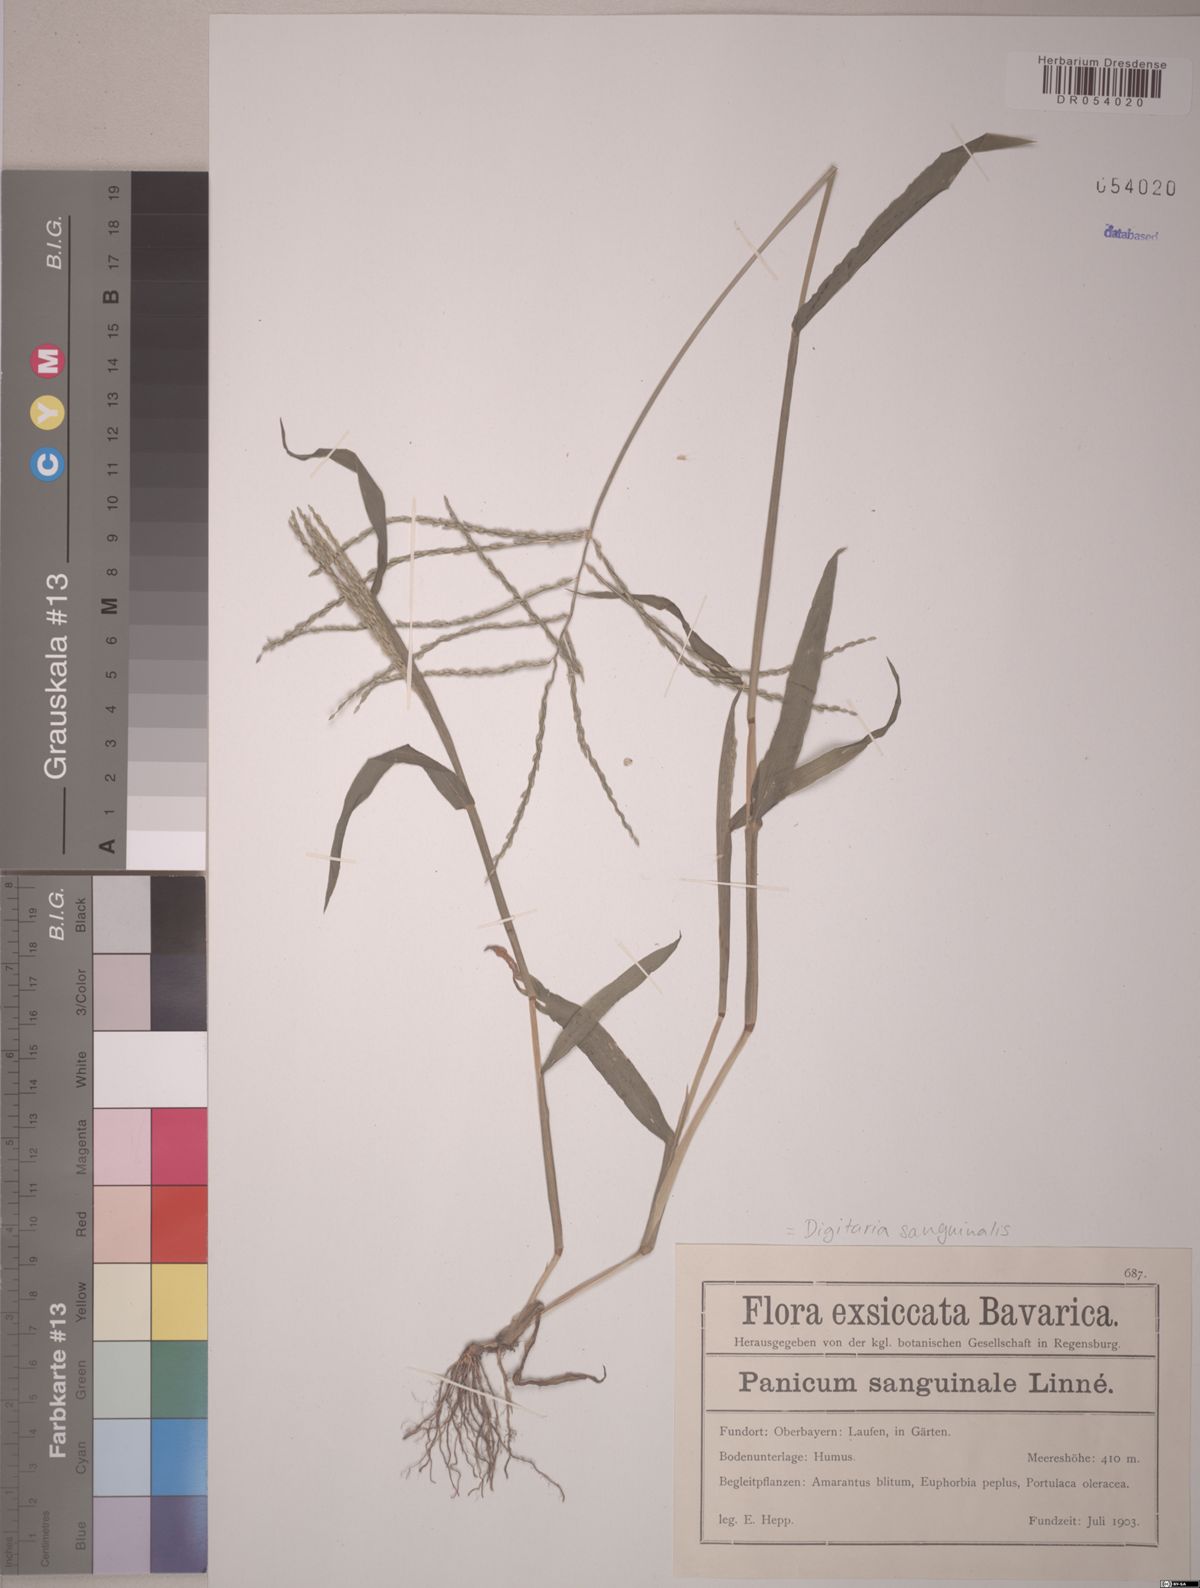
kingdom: Plantae
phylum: Tracheophyta
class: Liliopsida
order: Poales
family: Poaceae
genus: Digitaria
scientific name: Digitaria sanguinalis
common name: Hairy crabgrass
